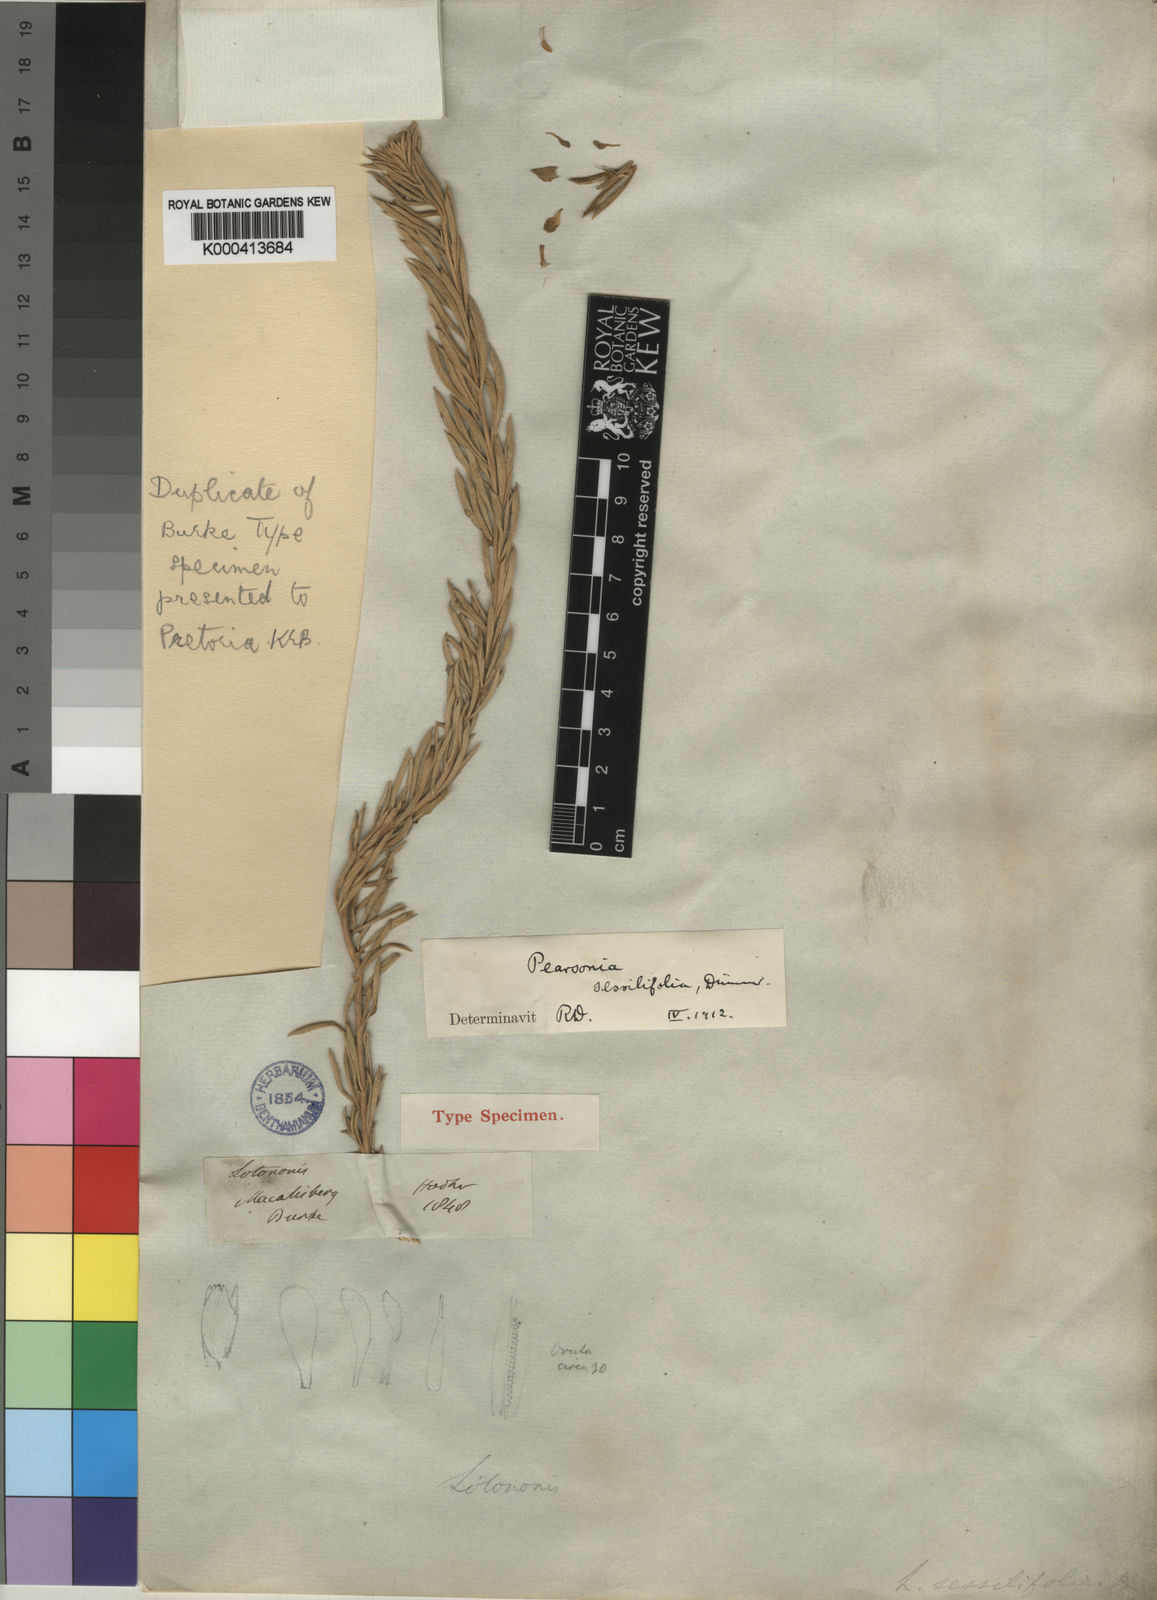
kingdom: Plantae
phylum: Tracheophyta
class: Magnoliopsida
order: Fabales
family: Fabaceae
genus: Pearsonia
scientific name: Pearsonia sessilifolia
